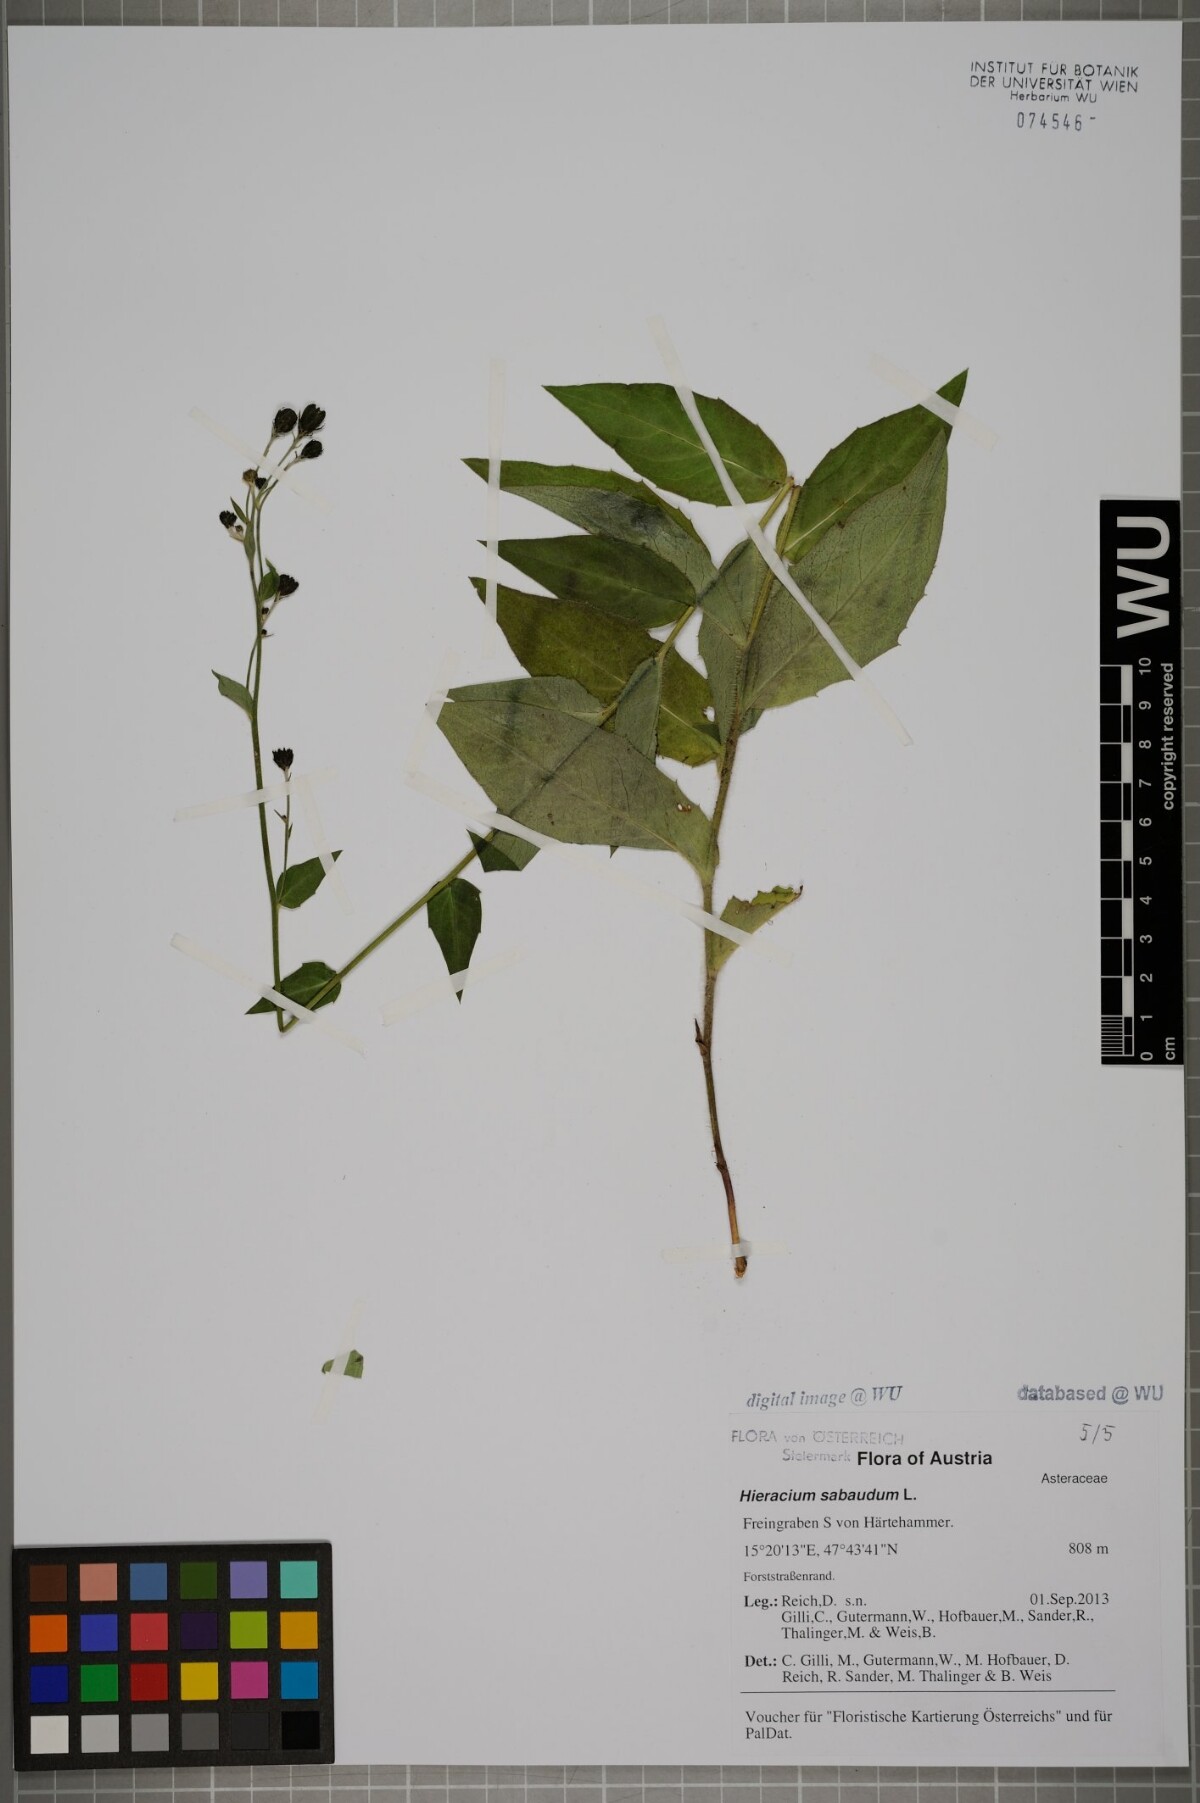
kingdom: Plantae
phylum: Tracheophyta
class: Magnoliopsida
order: Asterales
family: Asteraceae
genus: Hieracium
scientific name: Hieracium sabaudum
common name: New england hawkweed
